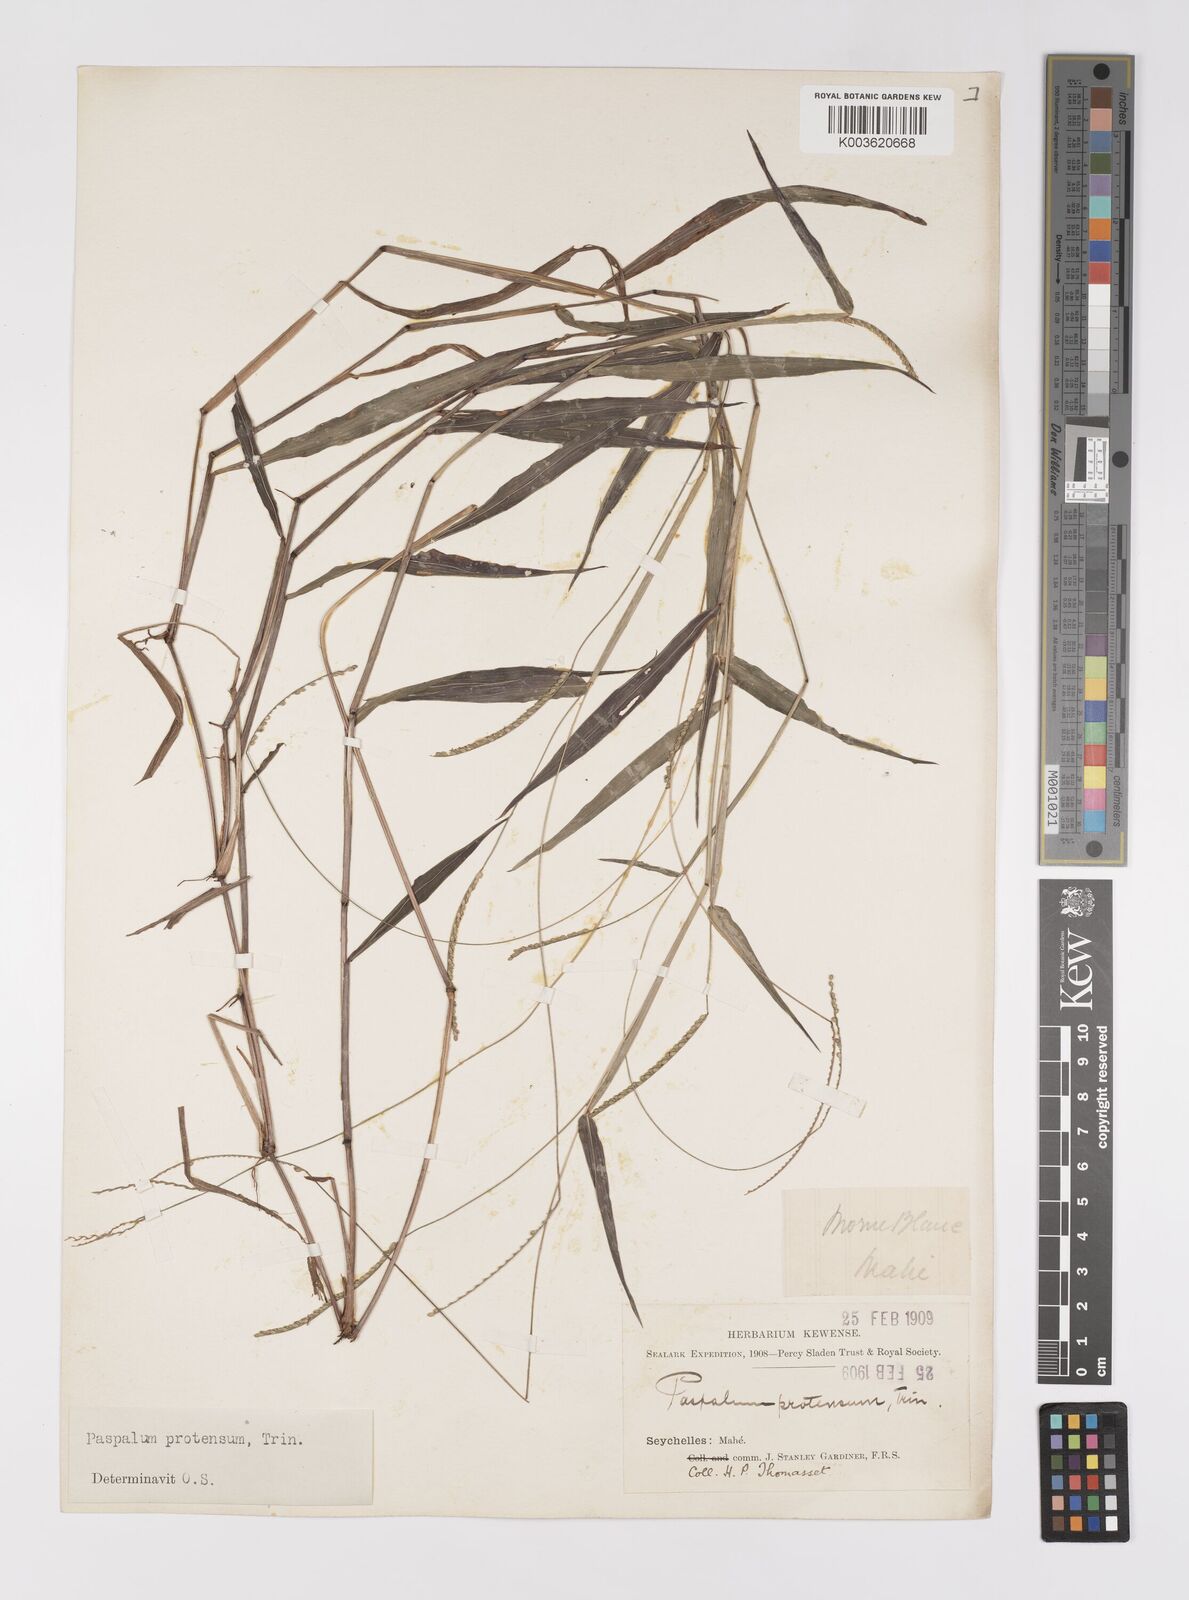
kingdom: Plantae
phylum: Tracheophyta
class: Liliopsida
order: Poales
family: Poaceae
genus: Paspalum
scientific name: Paspalum nutans
